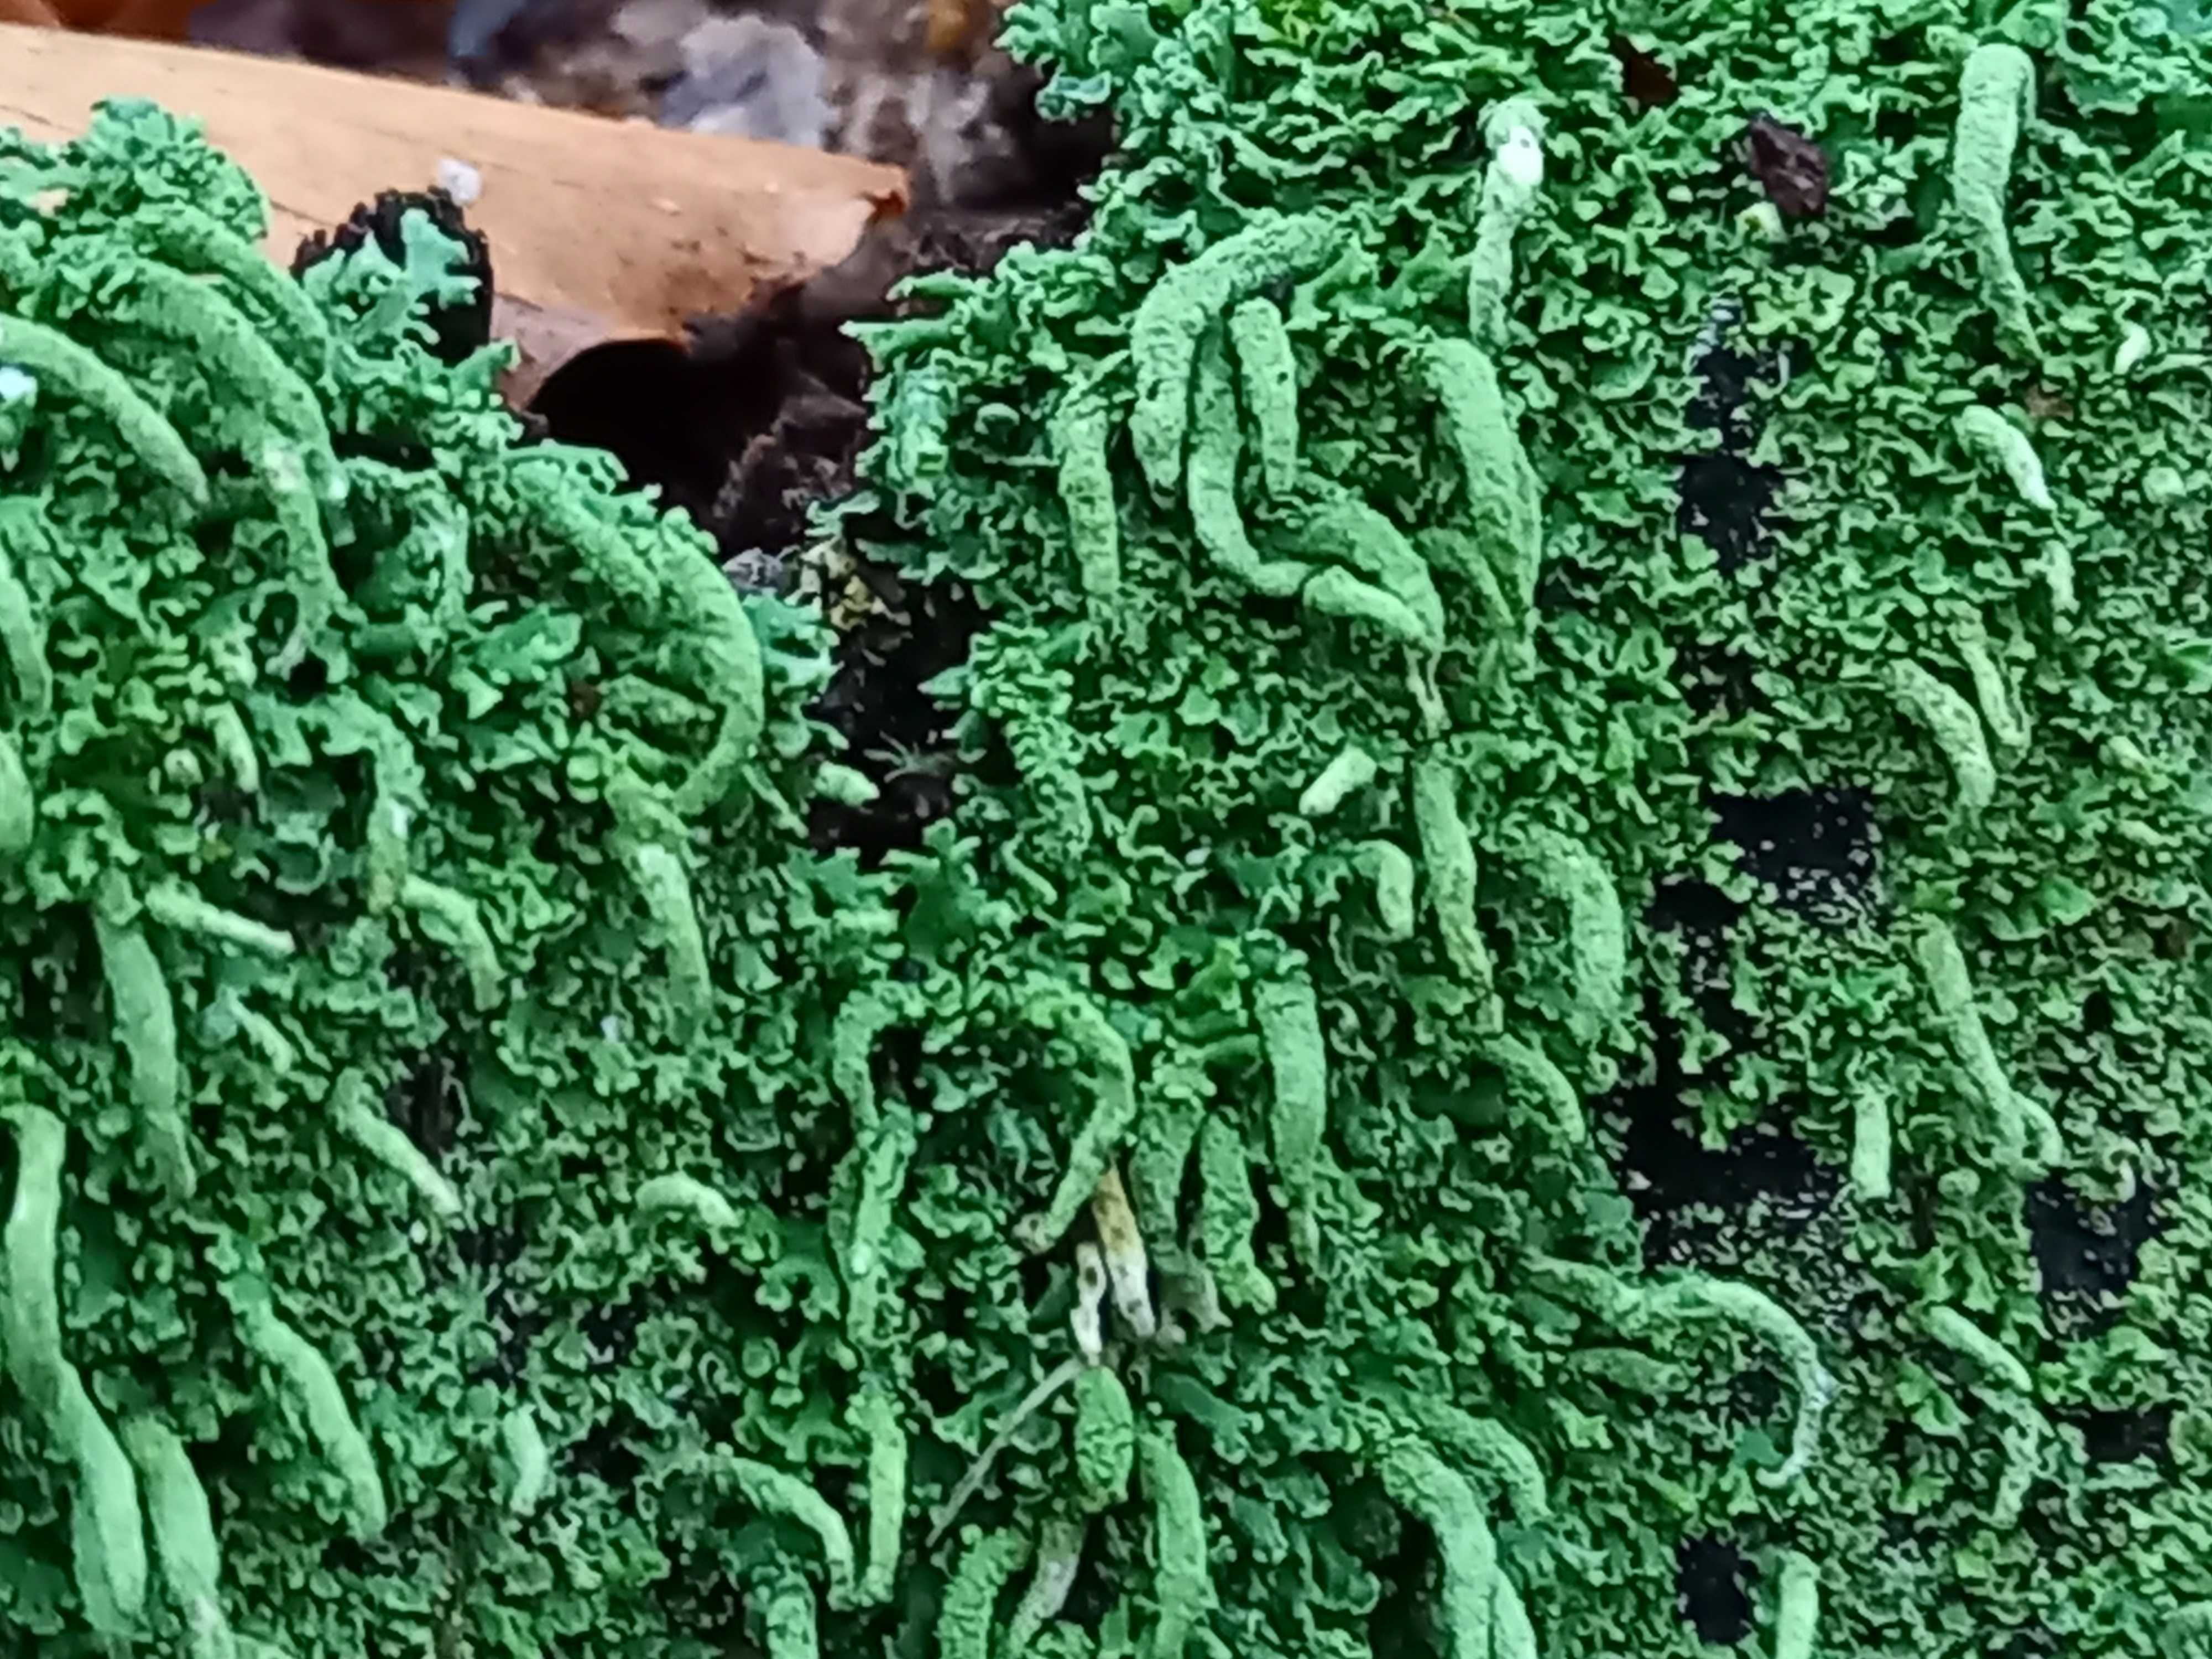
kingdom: Fungi
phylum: Ascomycota
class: Lecanoromycetes
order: Lecanorales
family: Cladoniaceae
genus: Cladonia
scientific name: Cladonia coniocraea
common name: træfods-bægerlav
